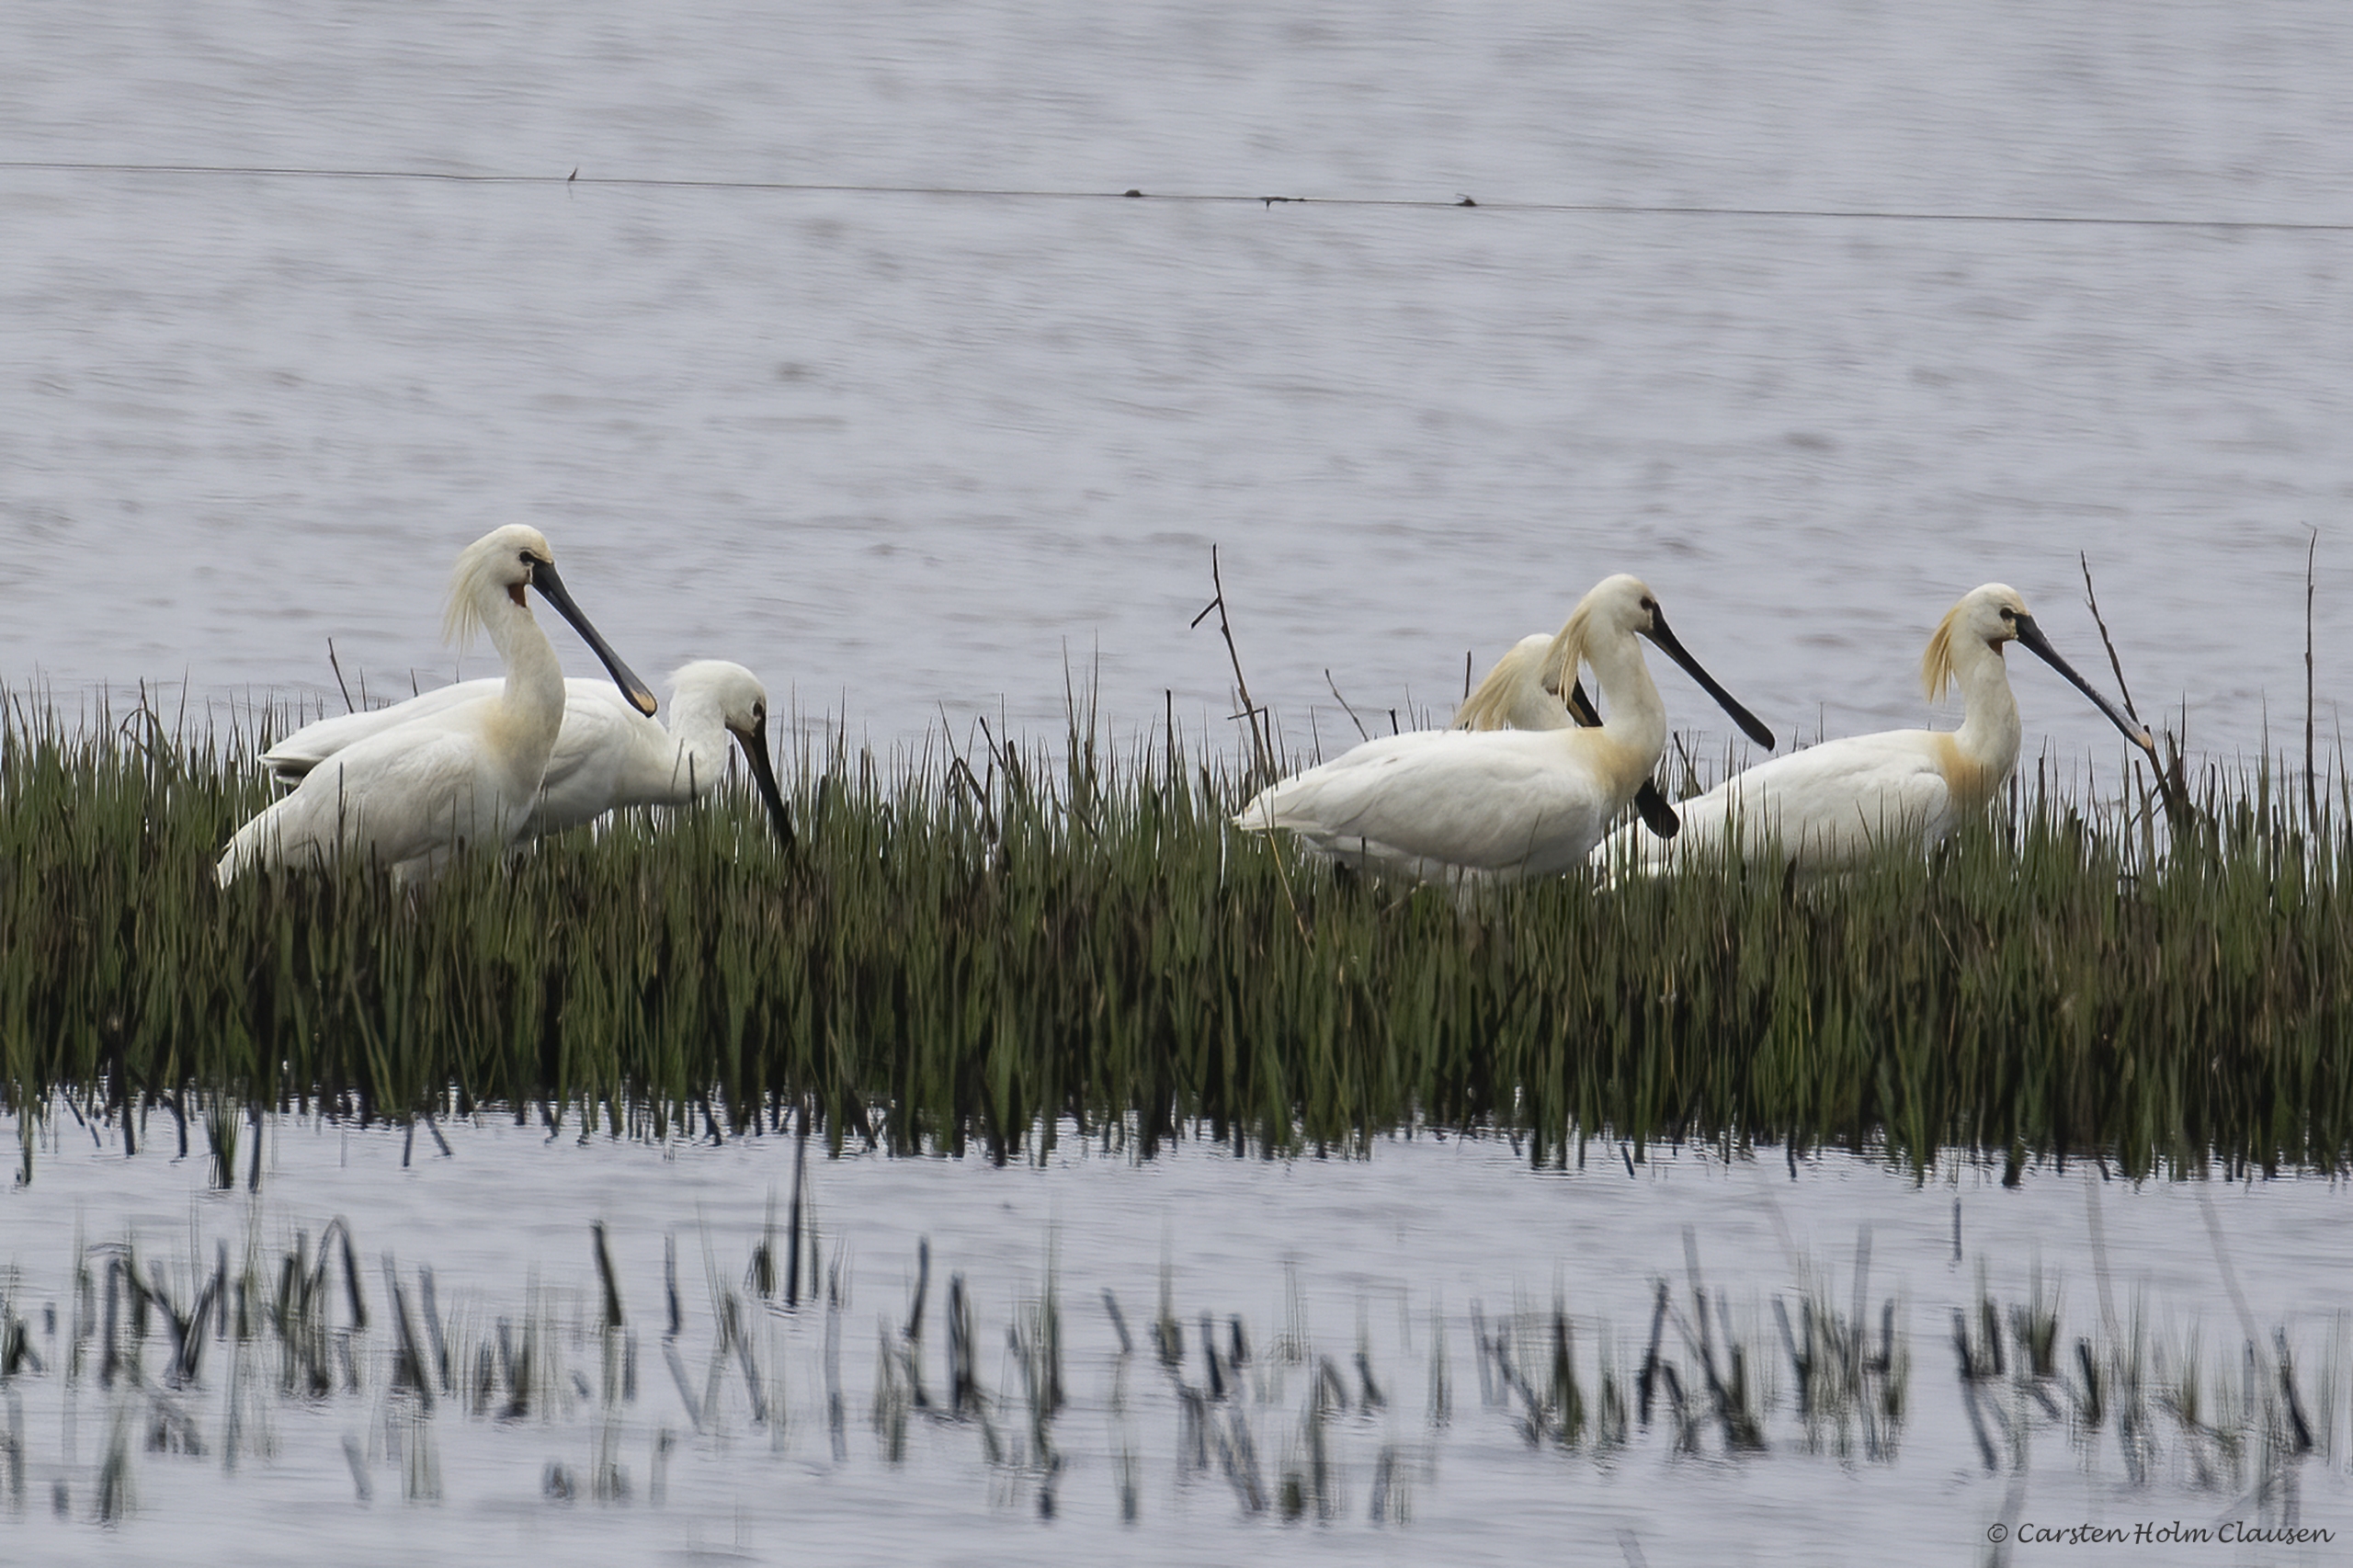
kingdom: Animalia
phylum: Chordata
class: Aves
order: Pelecaniformes
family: Threskiornithidae
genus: Platalea
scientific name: Platalea leucorodia
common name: Skestork
